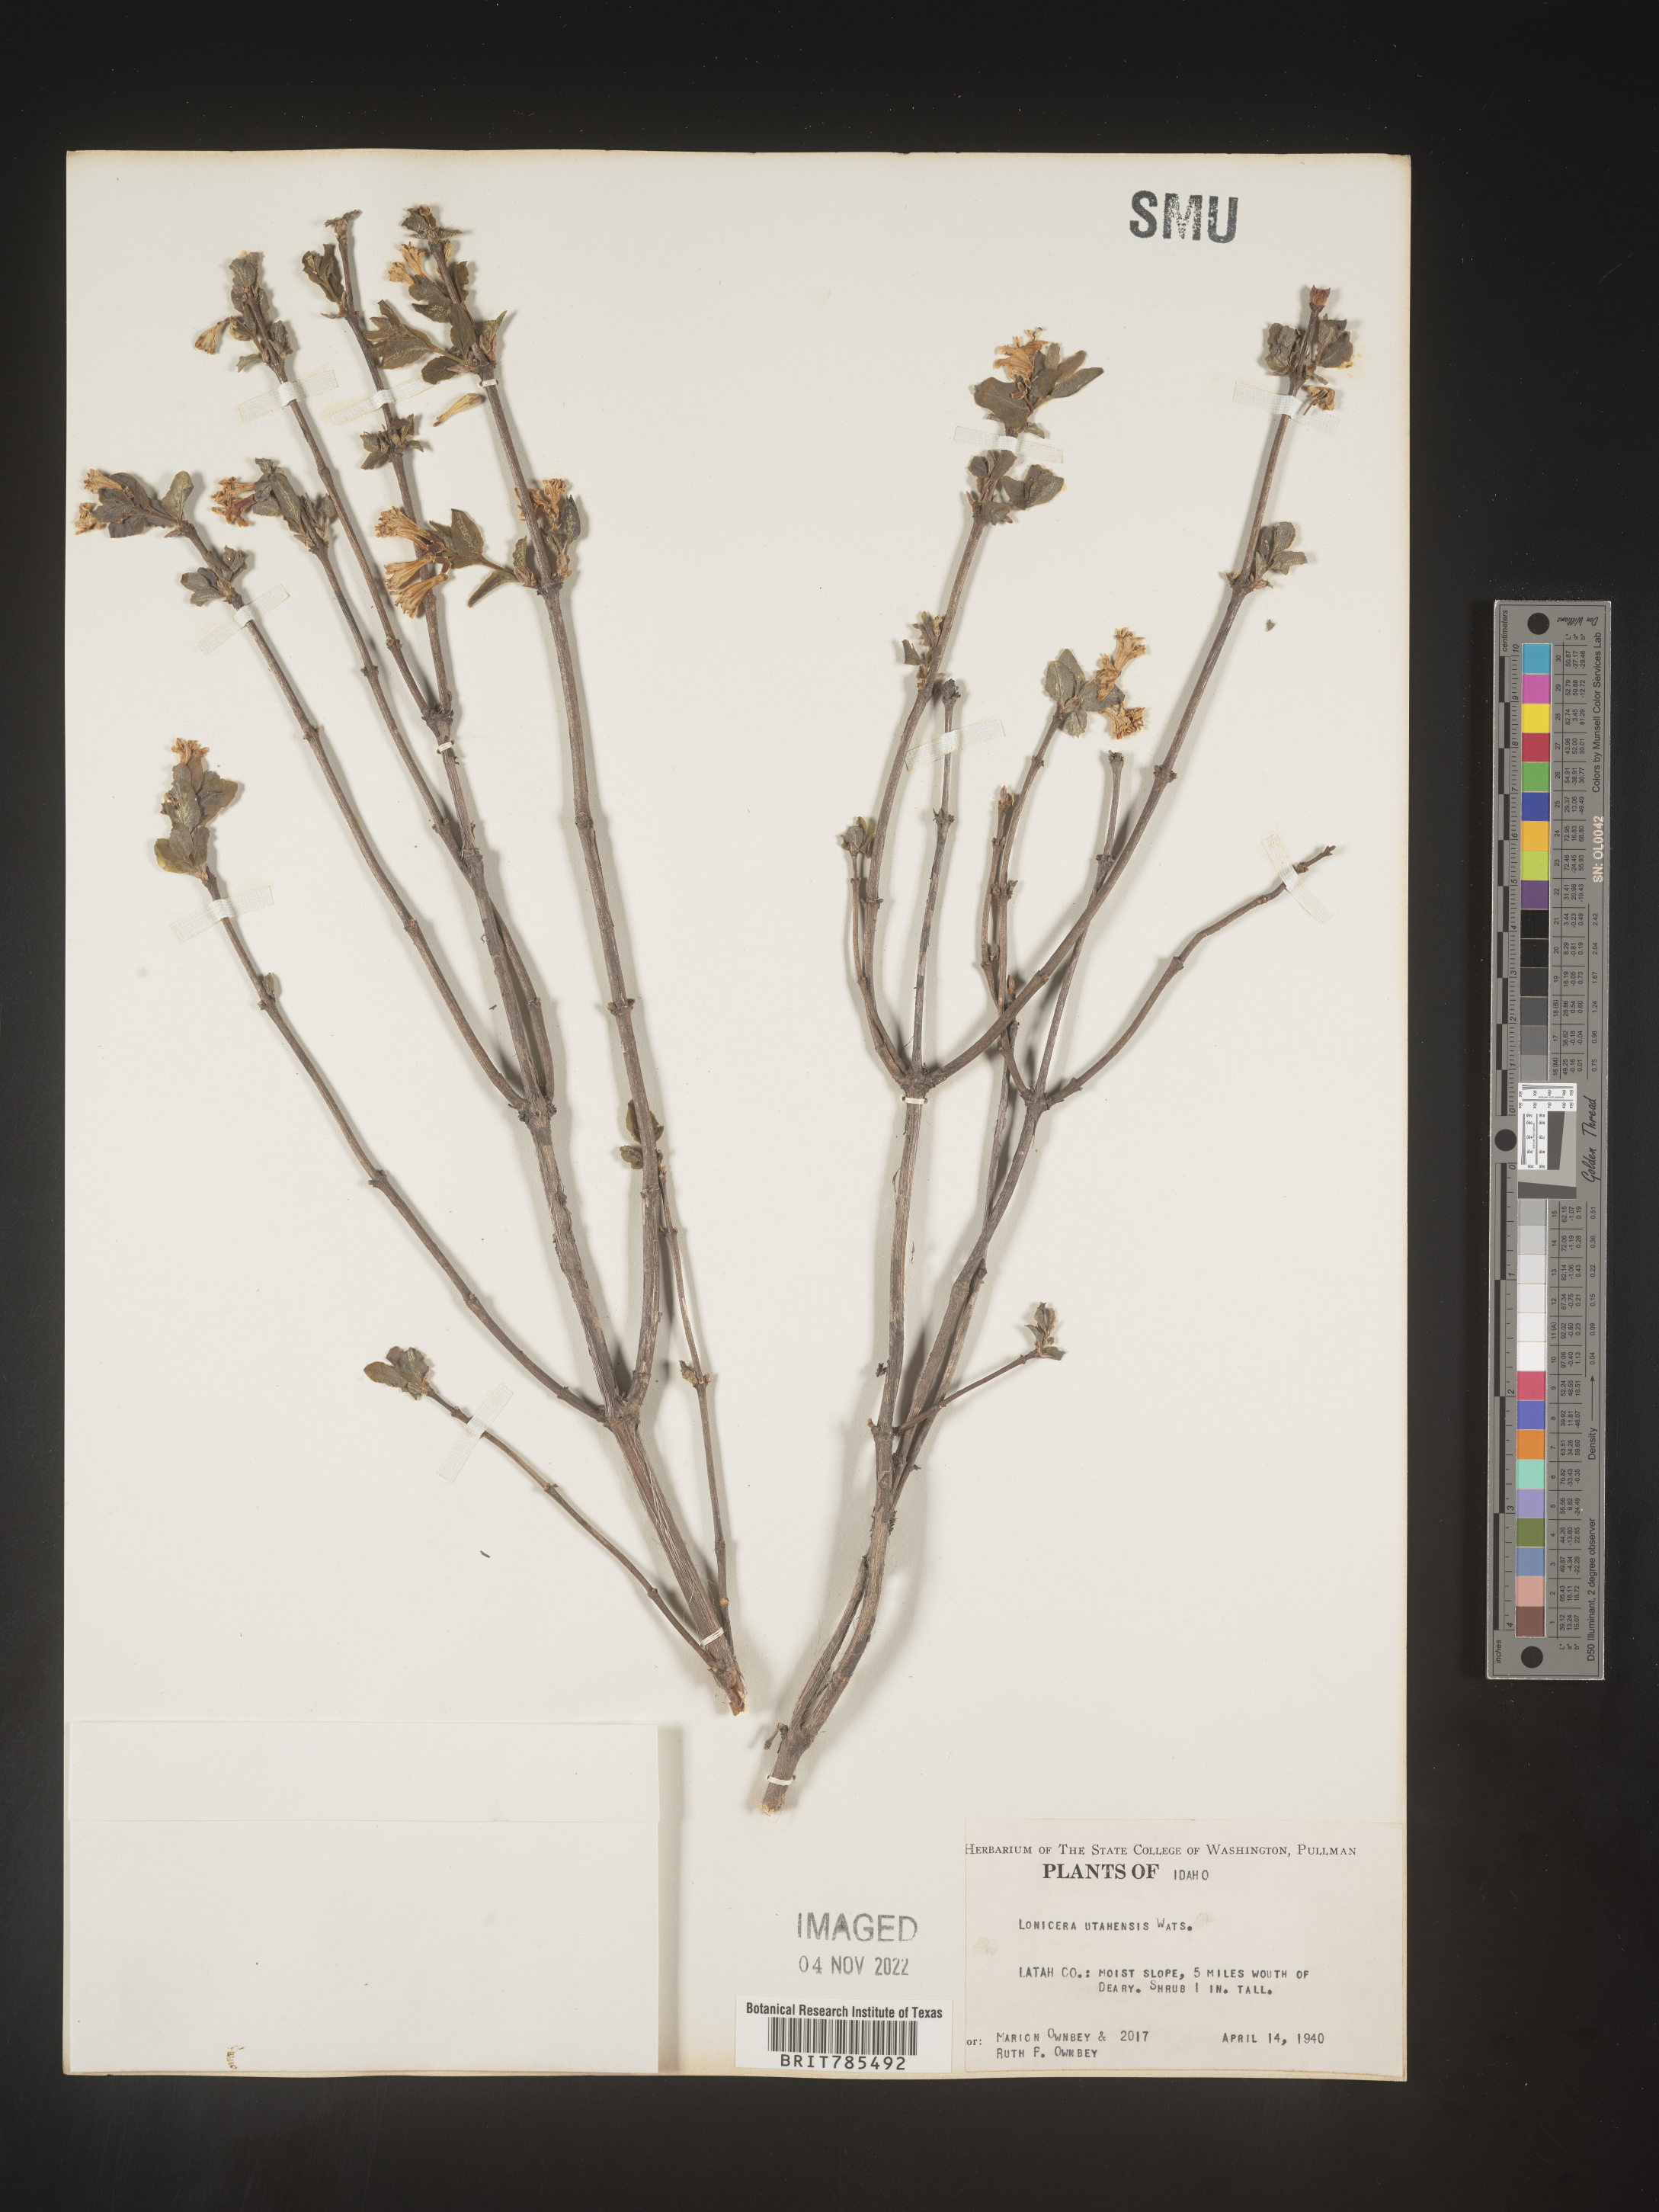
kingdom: Plantae
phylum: Tracheophyta
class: Magnoliopsida
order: Dipsacales
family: Caprifoliaceae
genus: Lonicera
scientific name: Lonicera utahensis
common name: Utah honeysuckle
